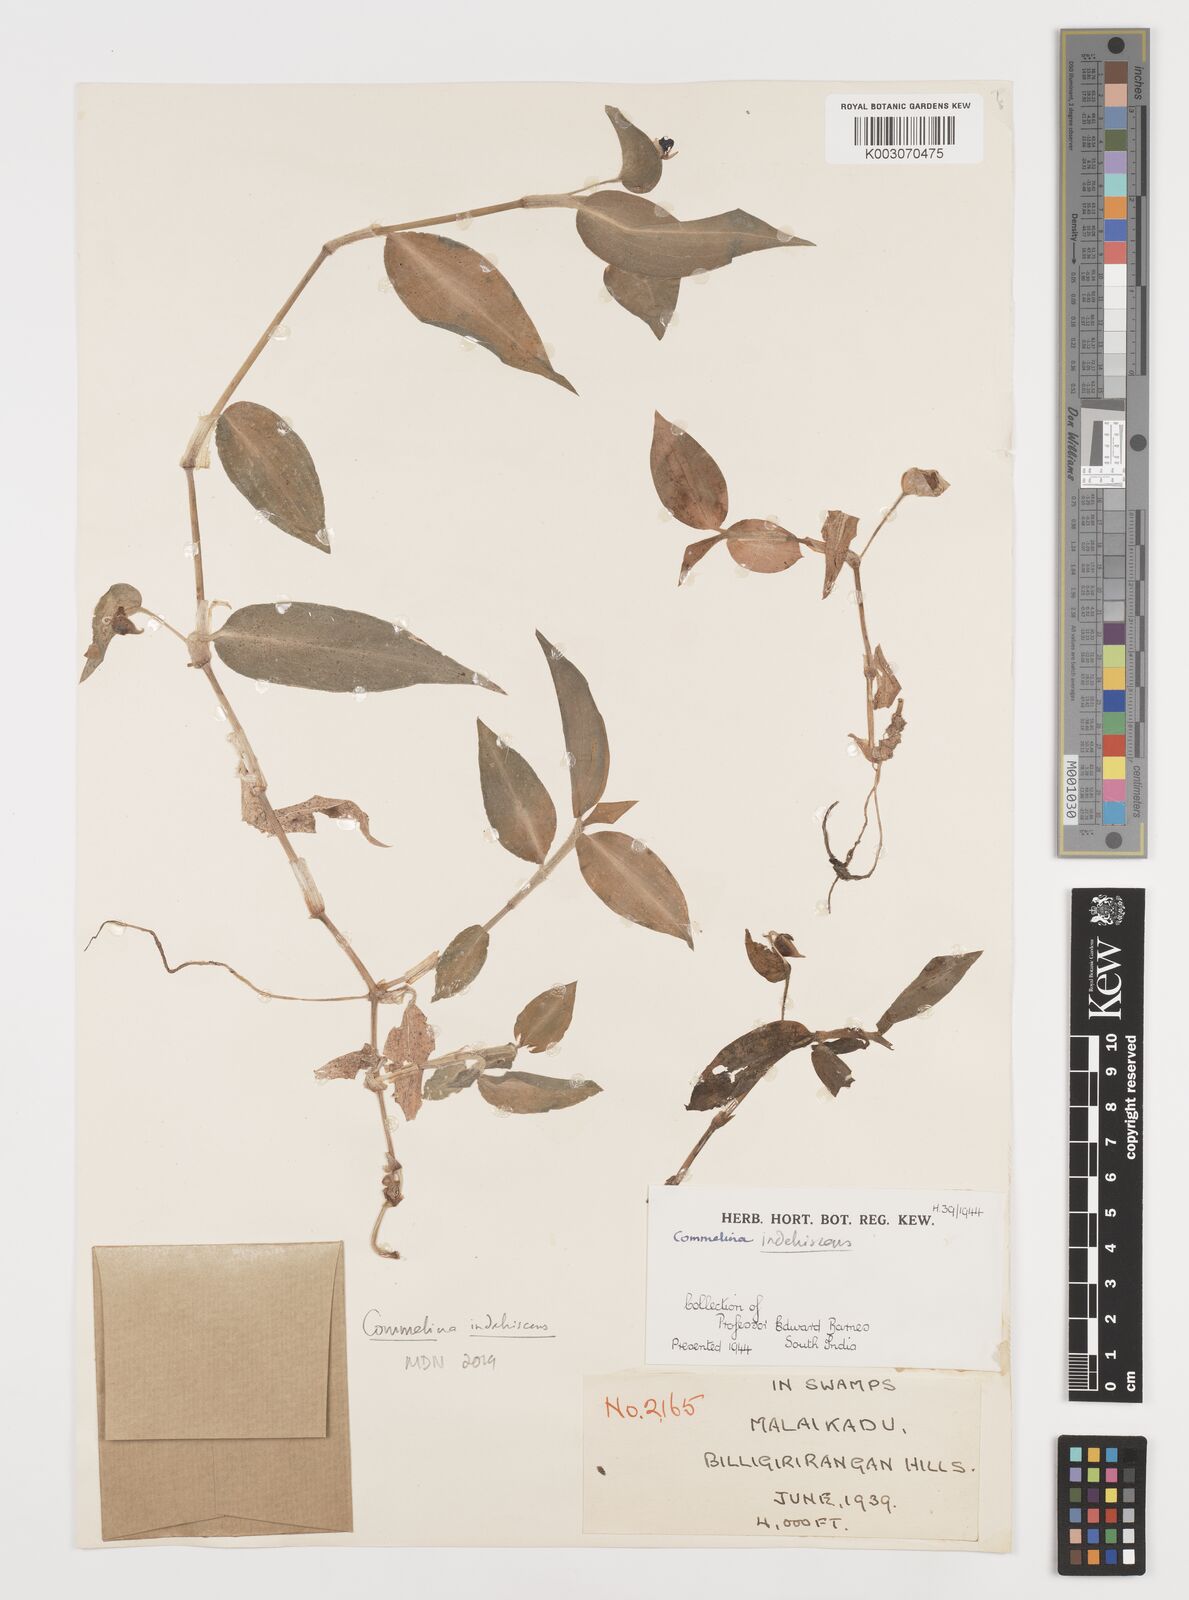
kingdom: Plantae
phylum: Tracheophyta
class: Liliopsida
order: Commelinales
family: Commelinaceae
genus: Commelina
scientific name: Commelina
